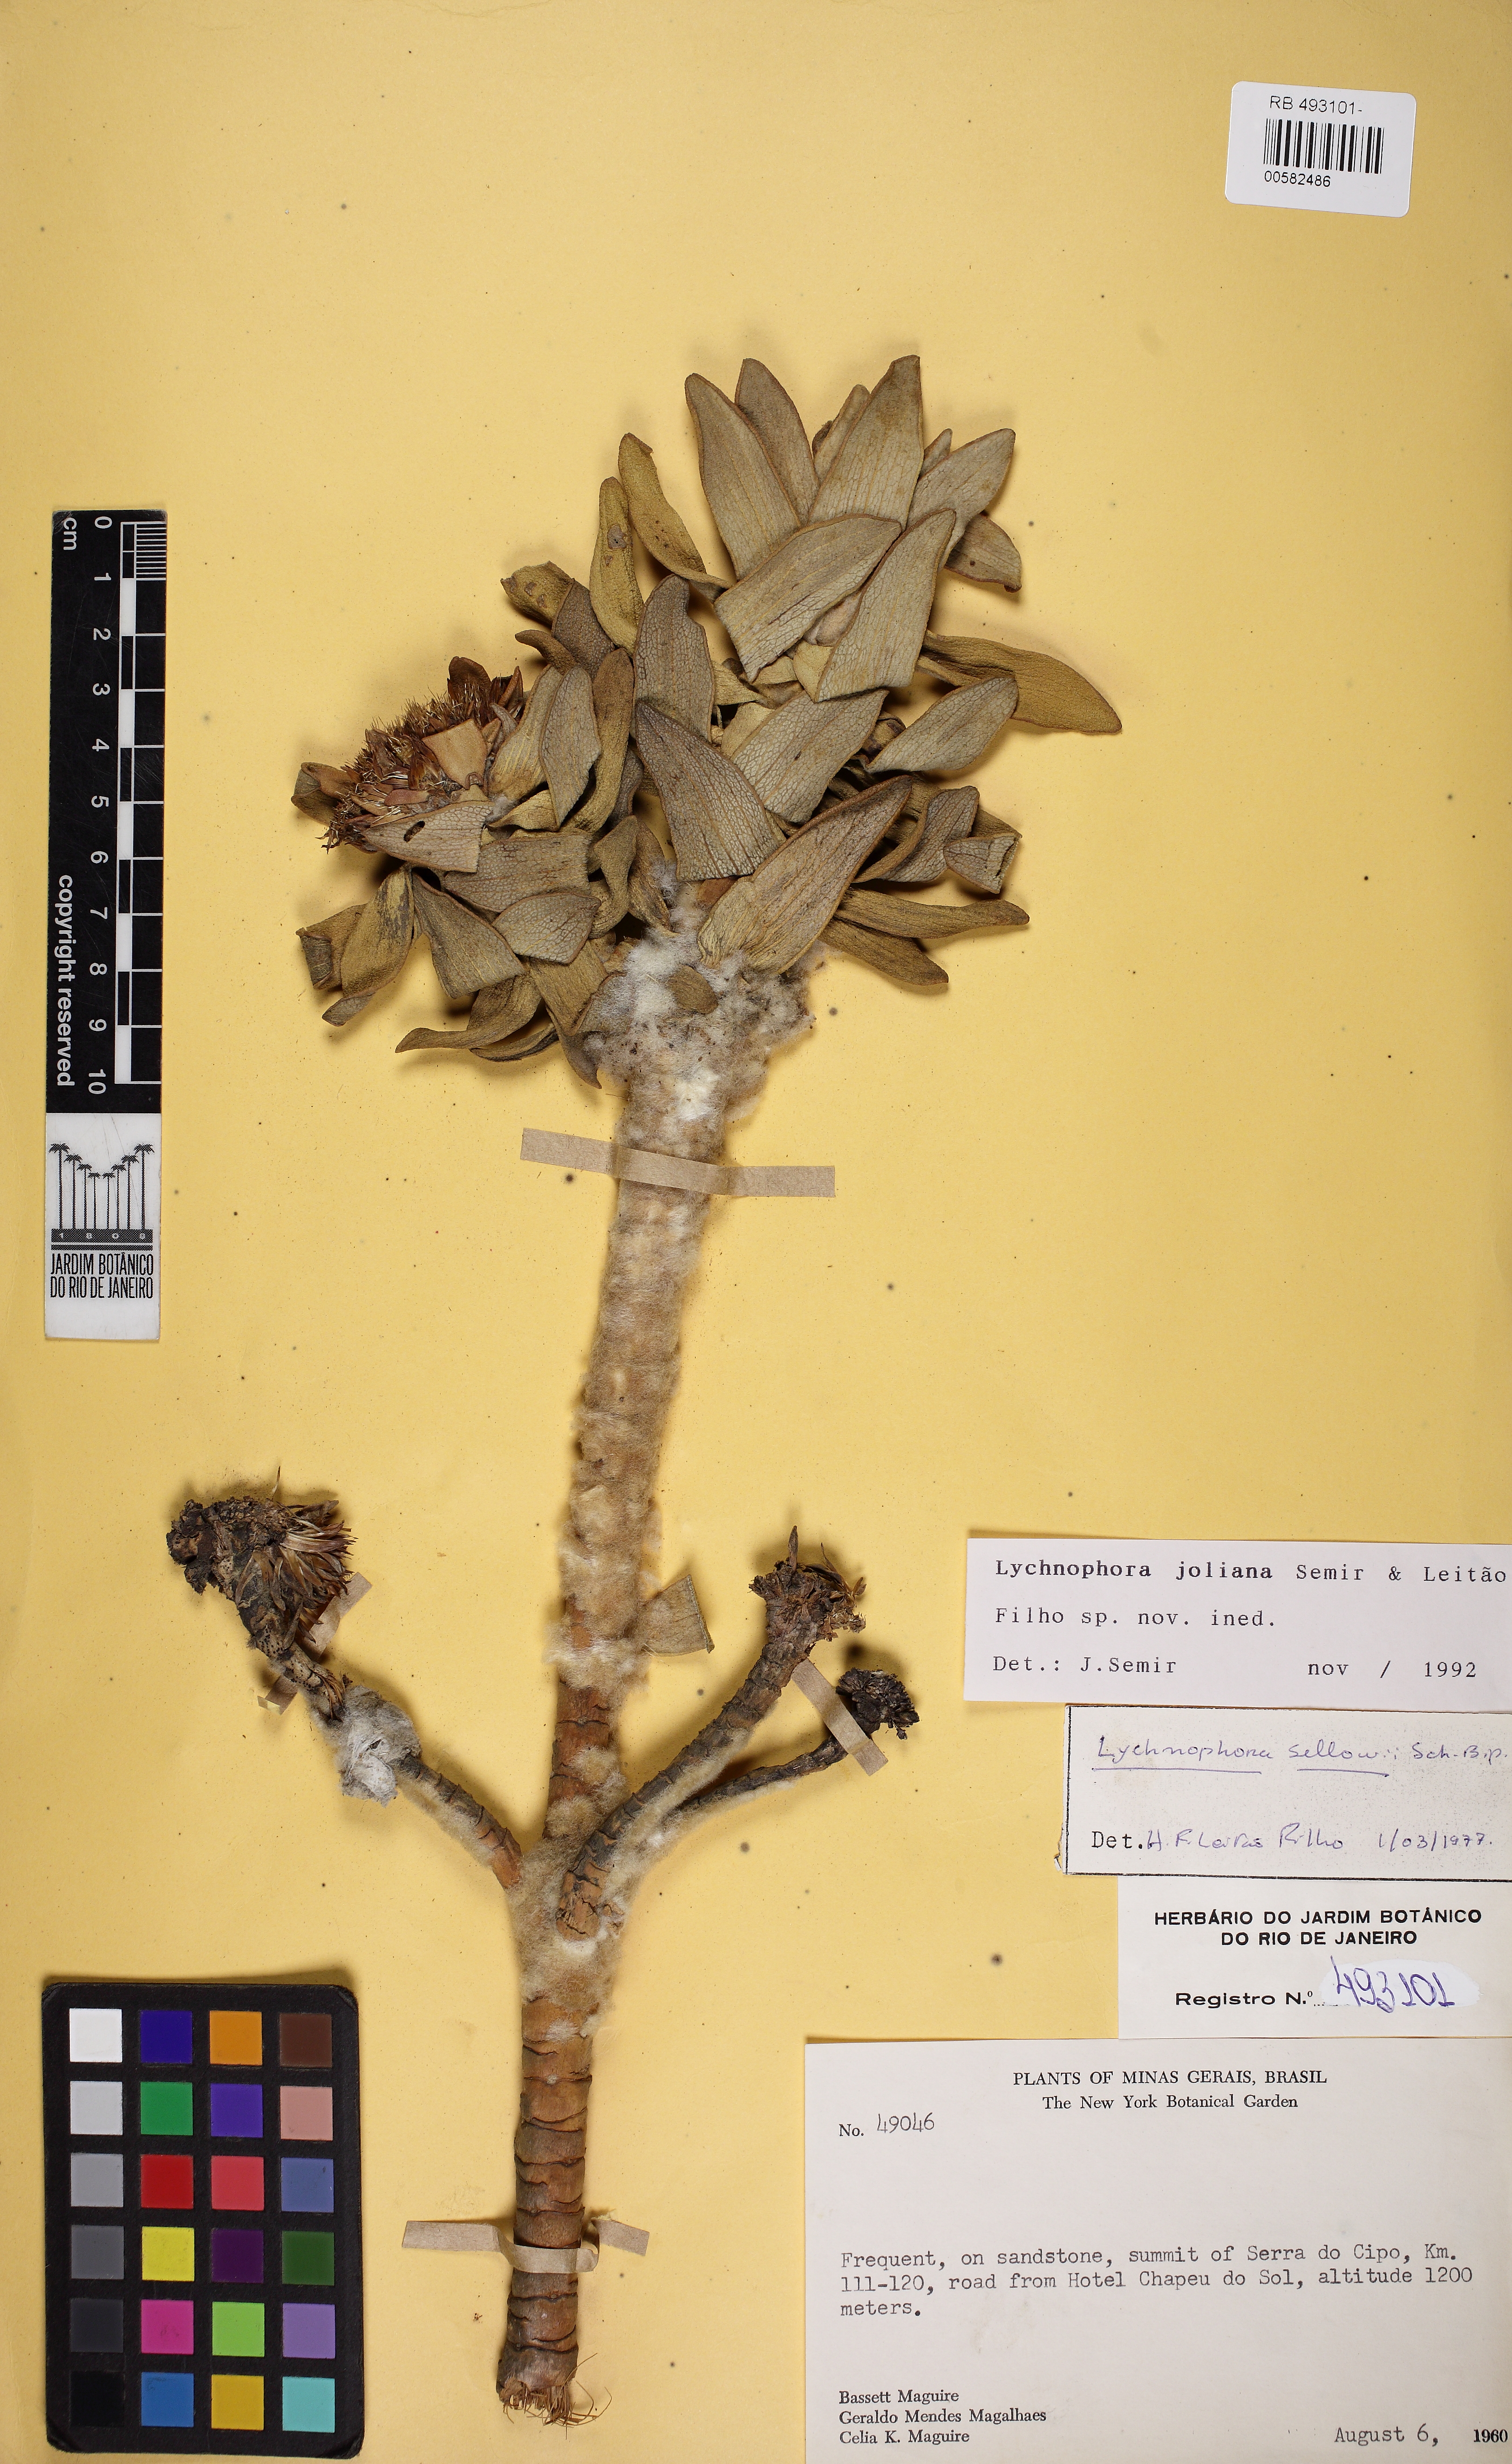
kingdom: Plantae
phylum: Tracheophyta
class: Magnoliopsida
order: Asterales
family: Asteraceae
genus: Lychnophora
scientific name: Lychnophora joliana
